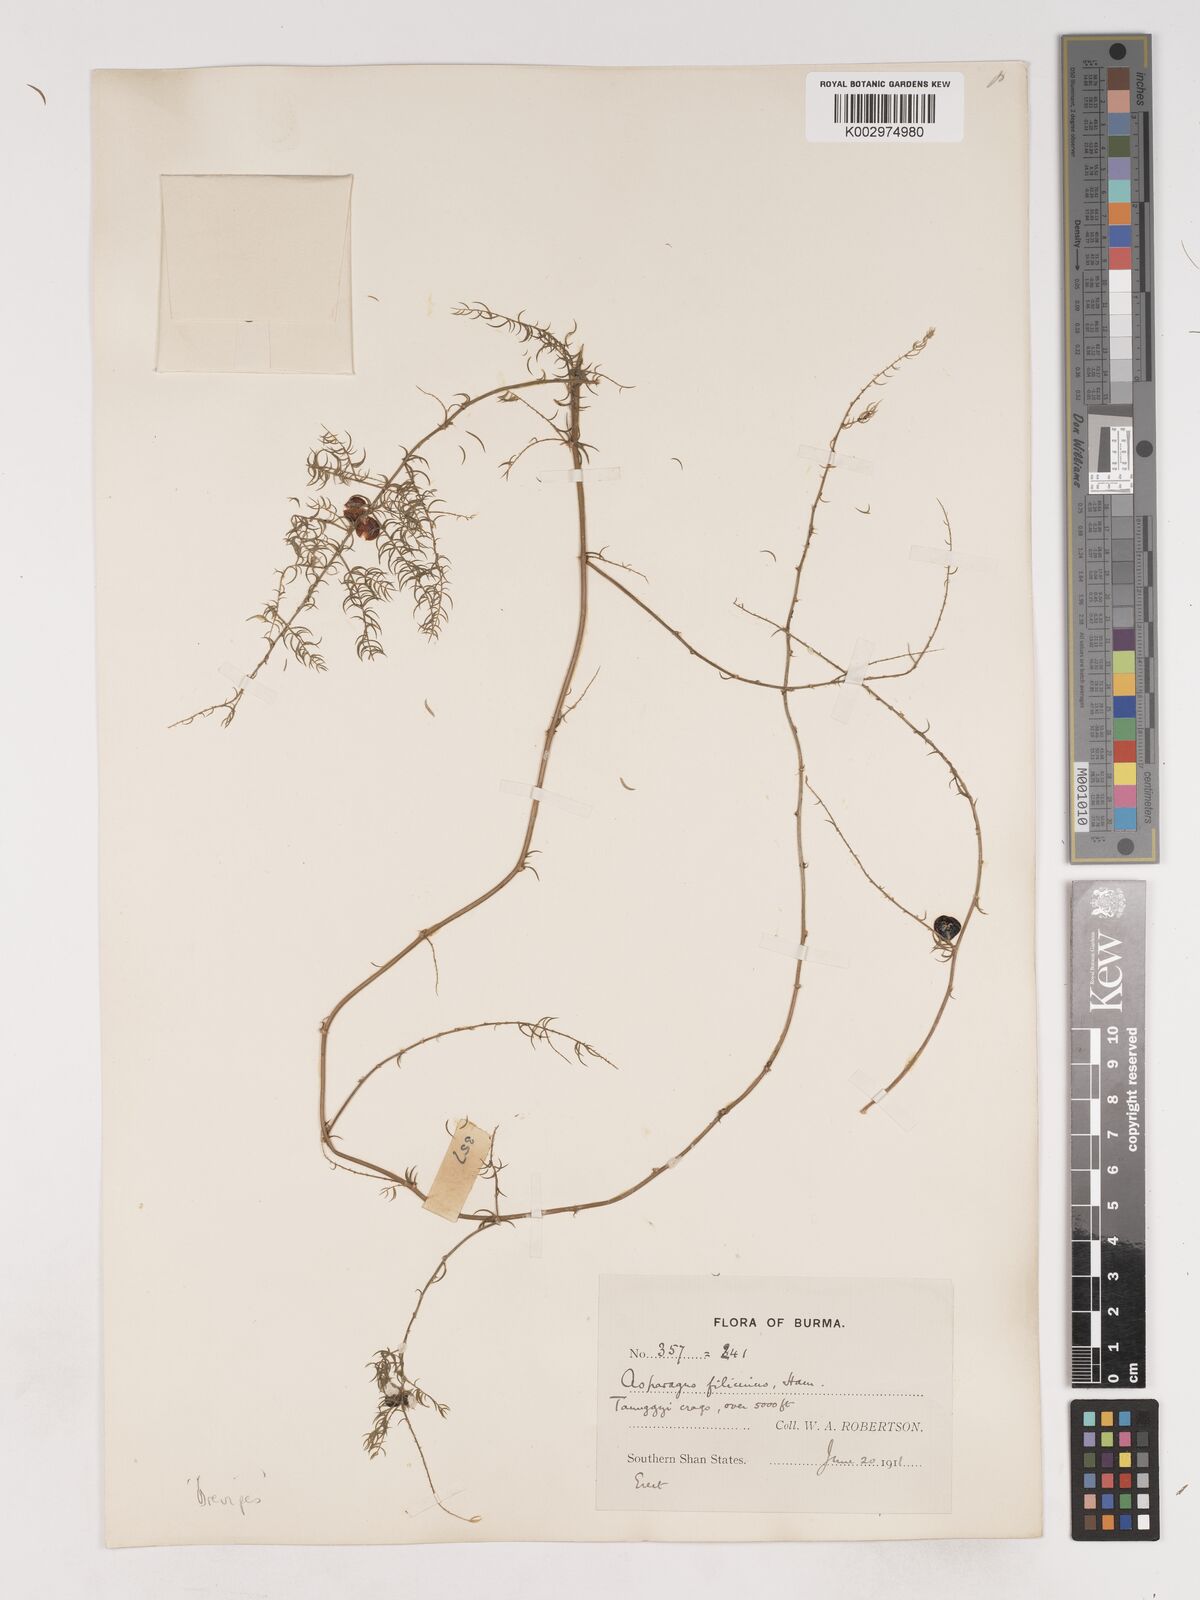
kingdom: Plantae
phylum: Tracheophyta
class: Liliopsida
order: Asparagales
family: Asparagaceae
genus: Asparagus
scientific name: Asparagus filicinus
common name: Fern asparagus
